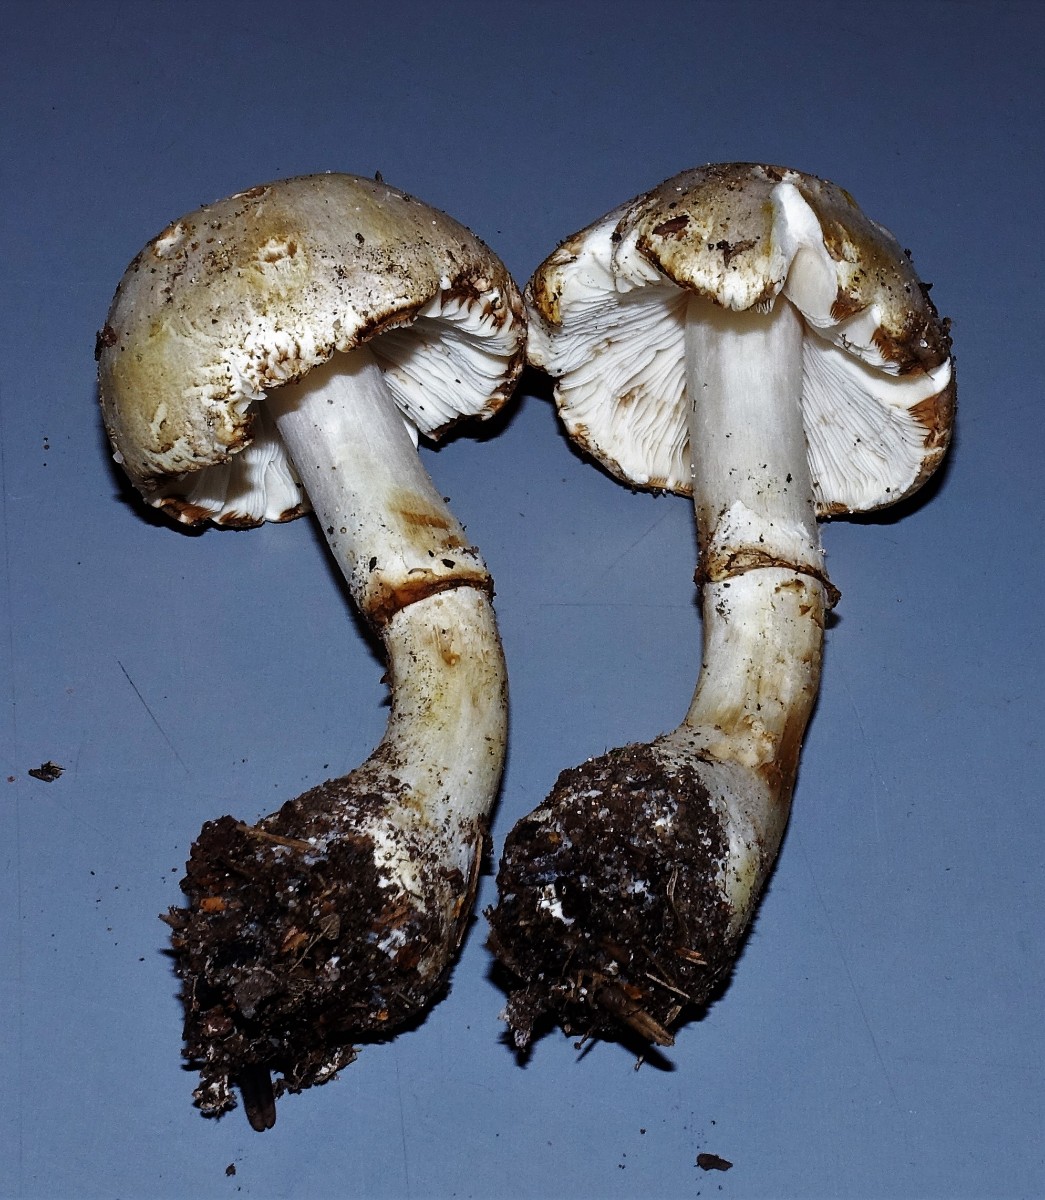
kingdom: Fungi
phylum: Basidiomycota
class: Agaricomycetes
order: Agaricales
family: Agaricaceae
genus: Leucoagaricus
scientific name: Leucoagaricus leucothites
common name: rosabladet silkehat
